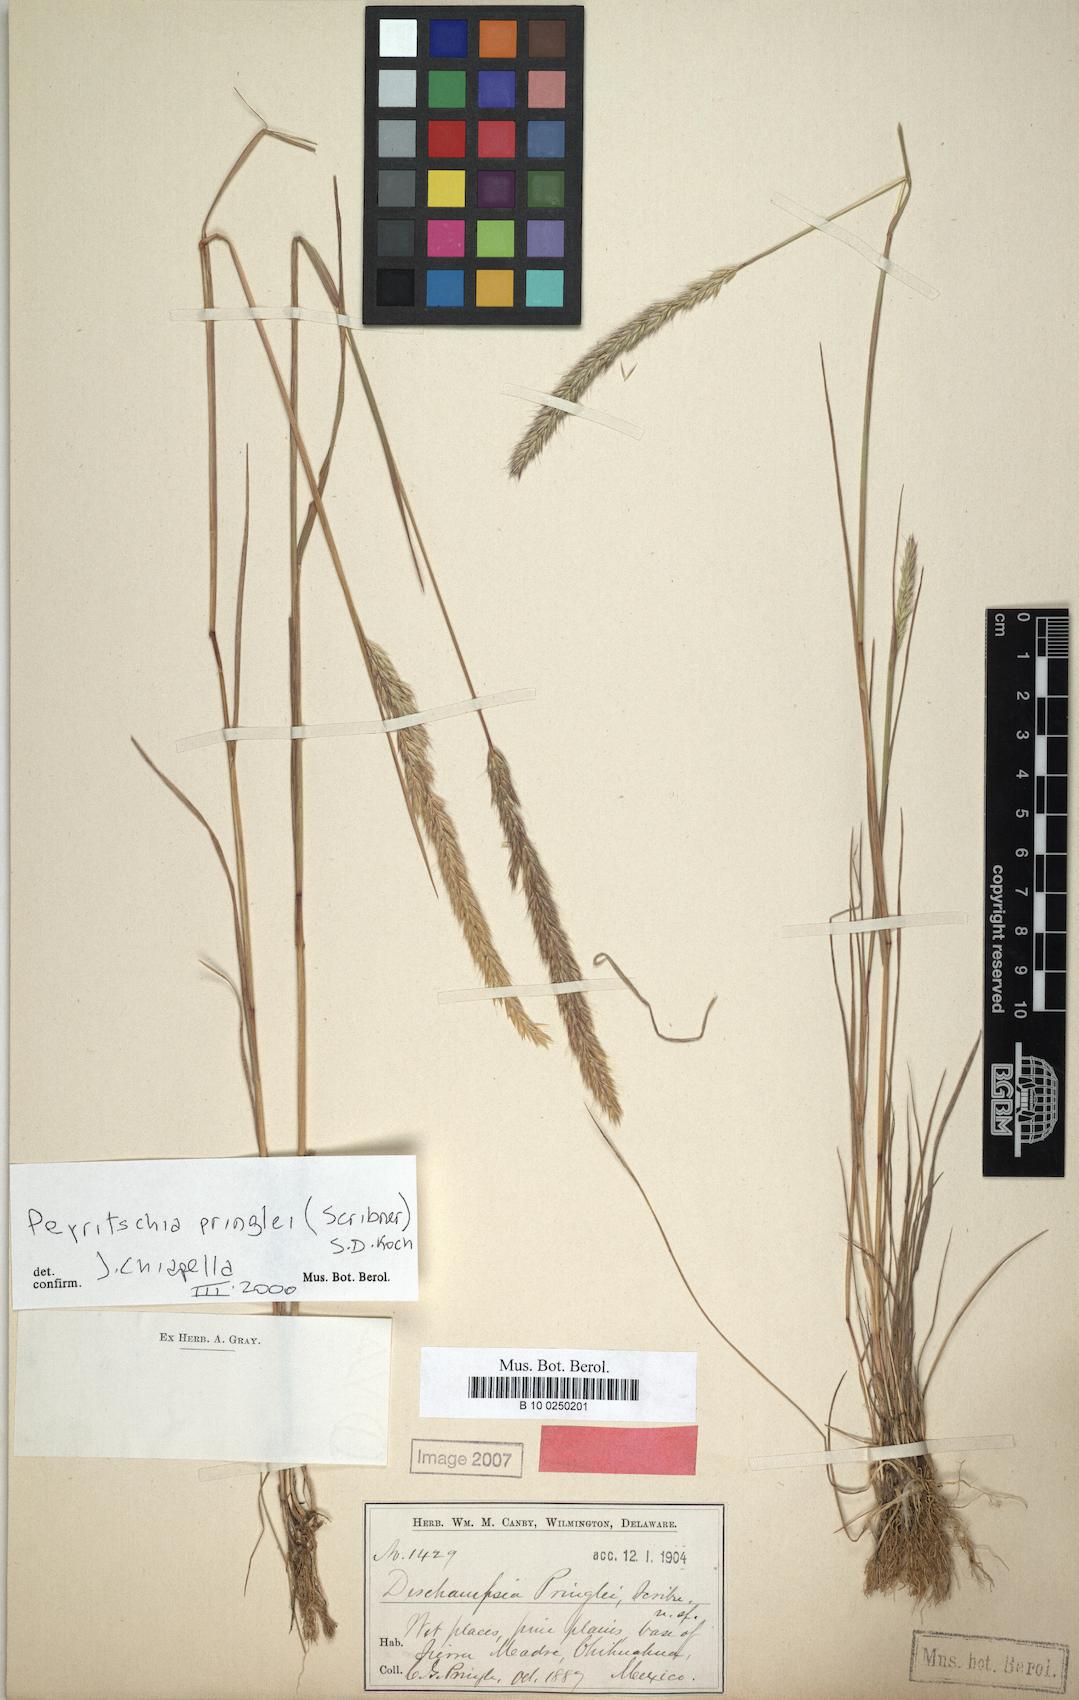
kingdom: Plantae
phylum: Tracheophyta
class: Liliopsida
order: Poales
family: Poaceae
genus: Peyritschia
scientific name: Peyritschia pringlei
